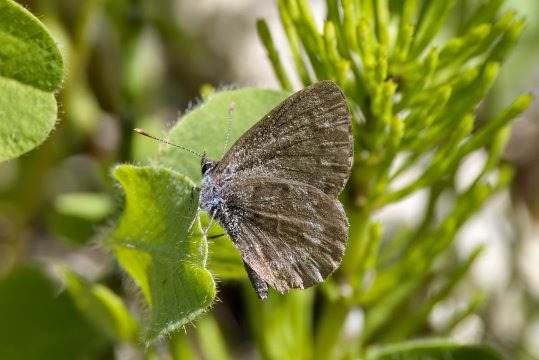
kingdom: Animalia
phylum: Arthropoda
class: Insecta
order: Lepidoptera
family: Lycaenidae
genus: Celastrina
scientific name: Celastrina lucia
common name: Northern Spring Azure
